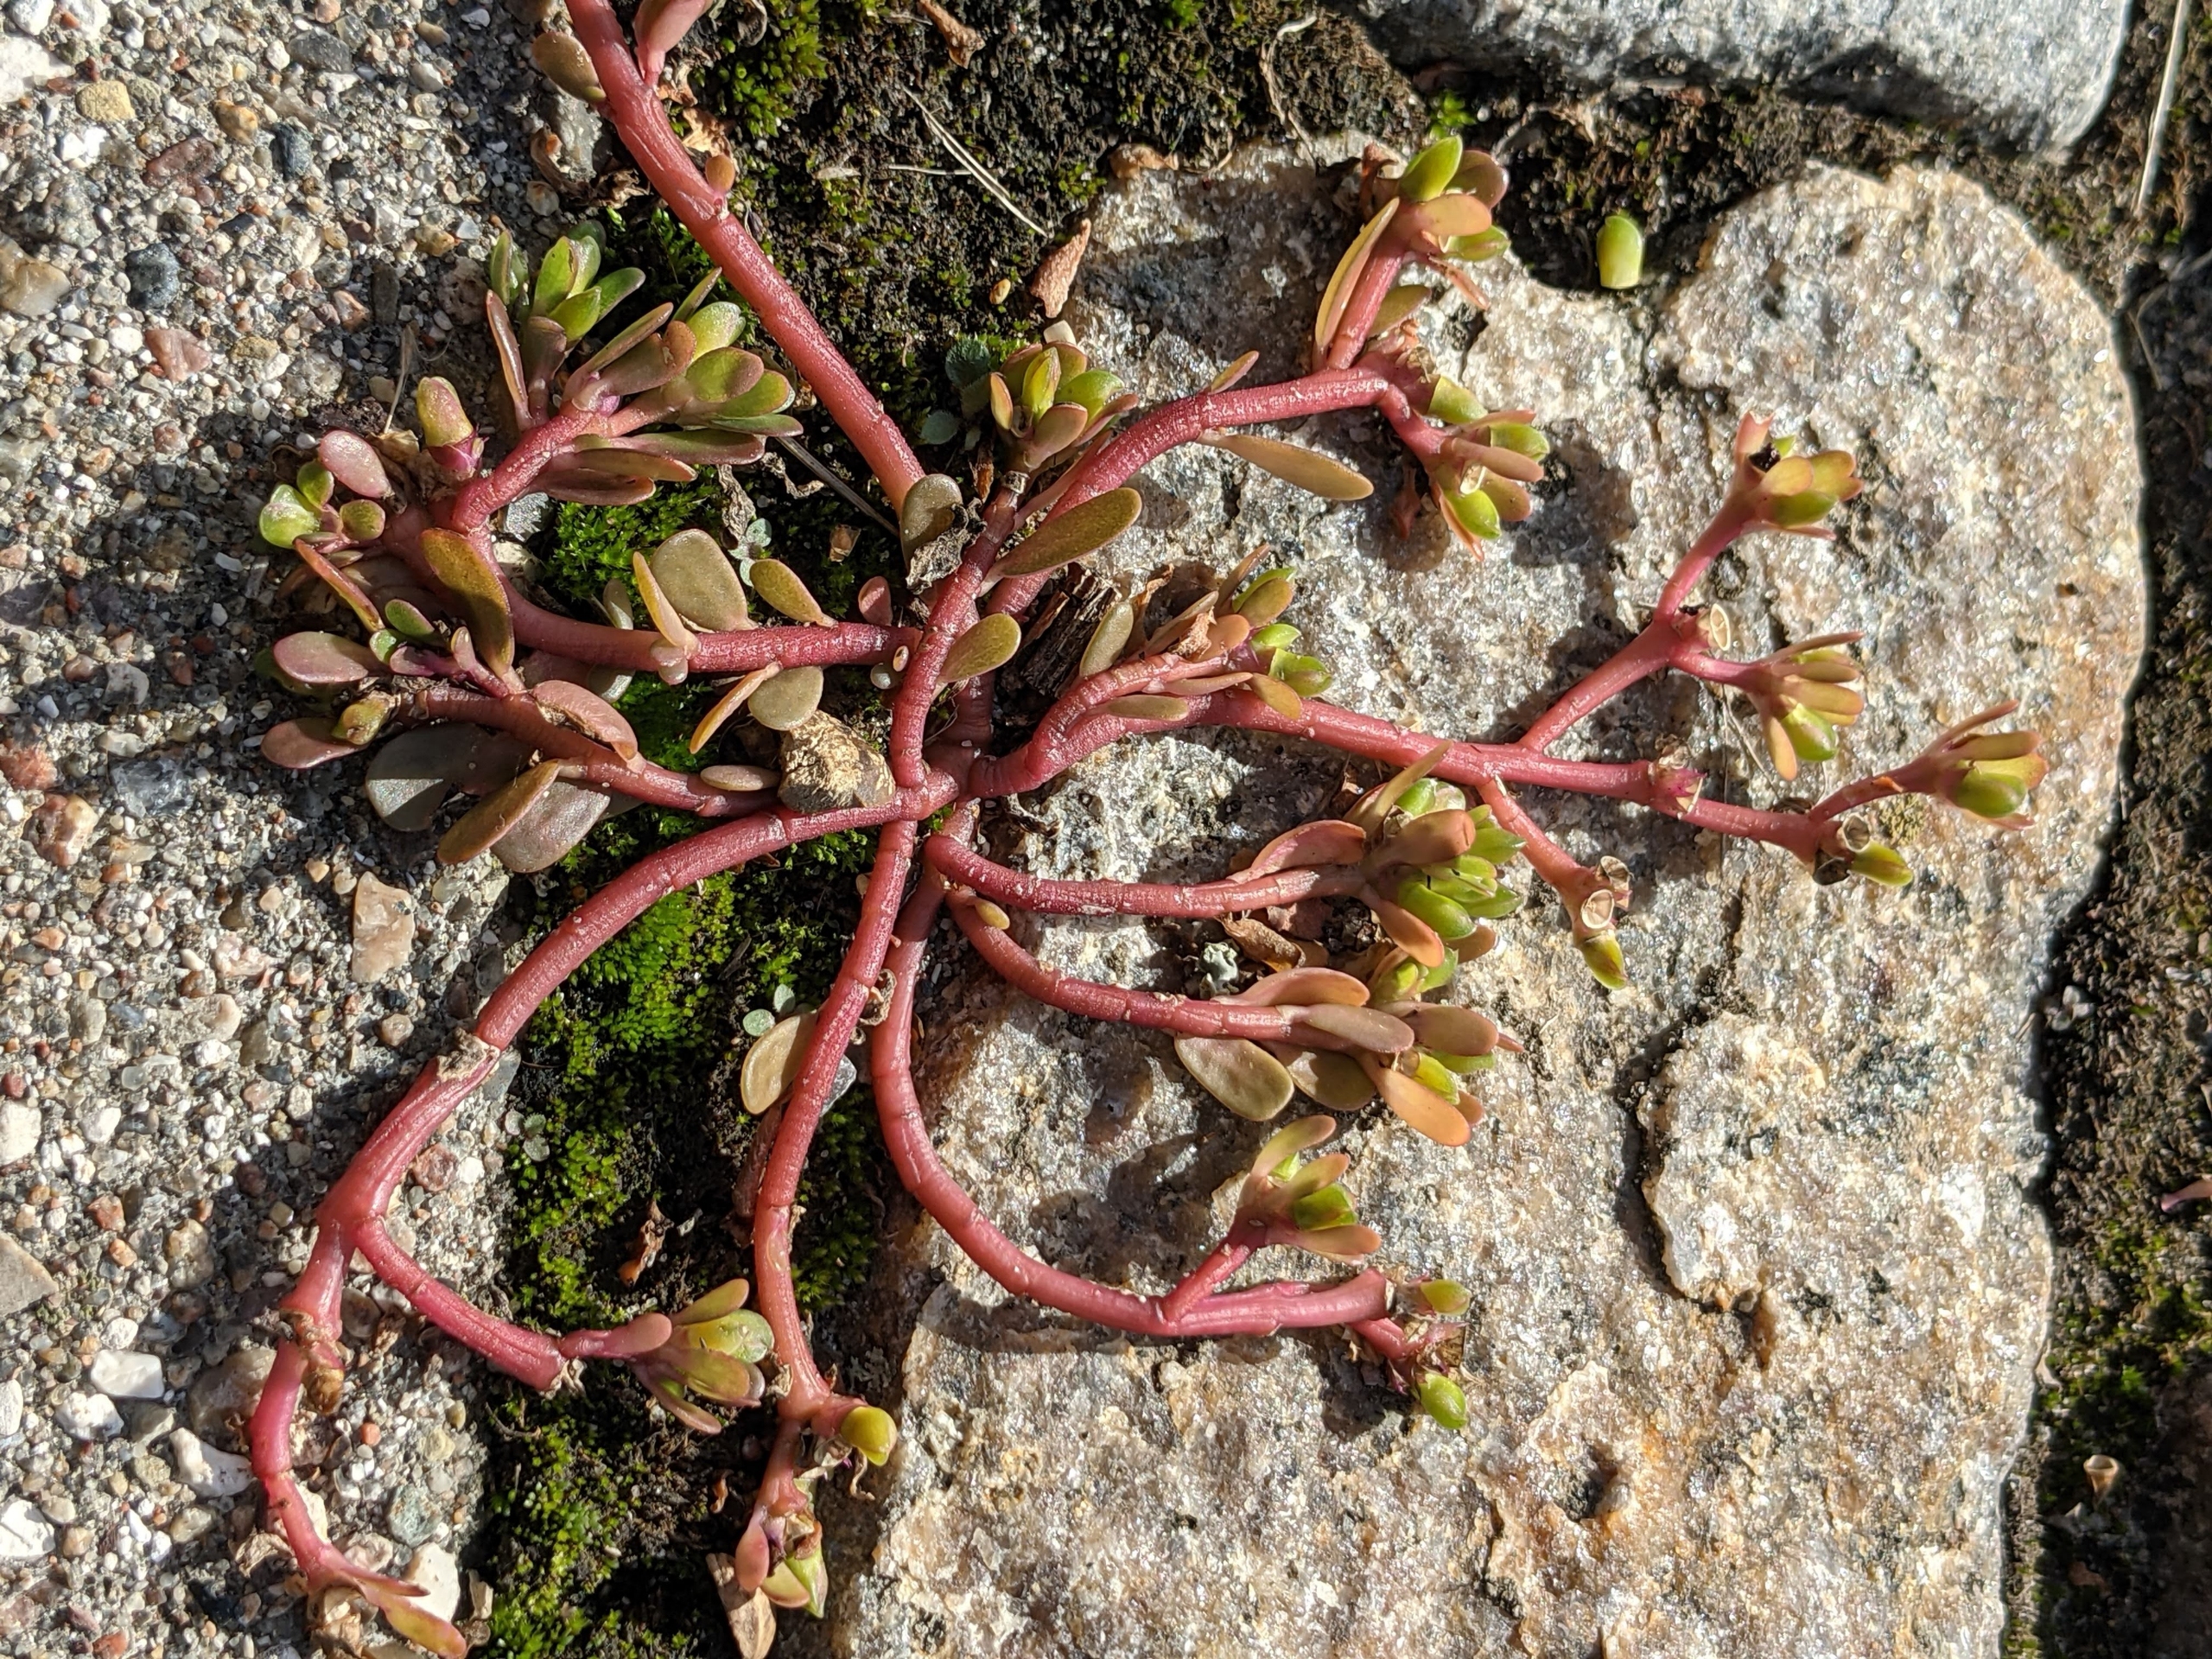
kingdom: Plantae
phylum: Tracheophyta
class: Magnoliopsida
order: Caryophyllales
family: Portulacaceae
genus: Portulaca
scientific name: Portulaca oleracea
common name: Vild portulak
